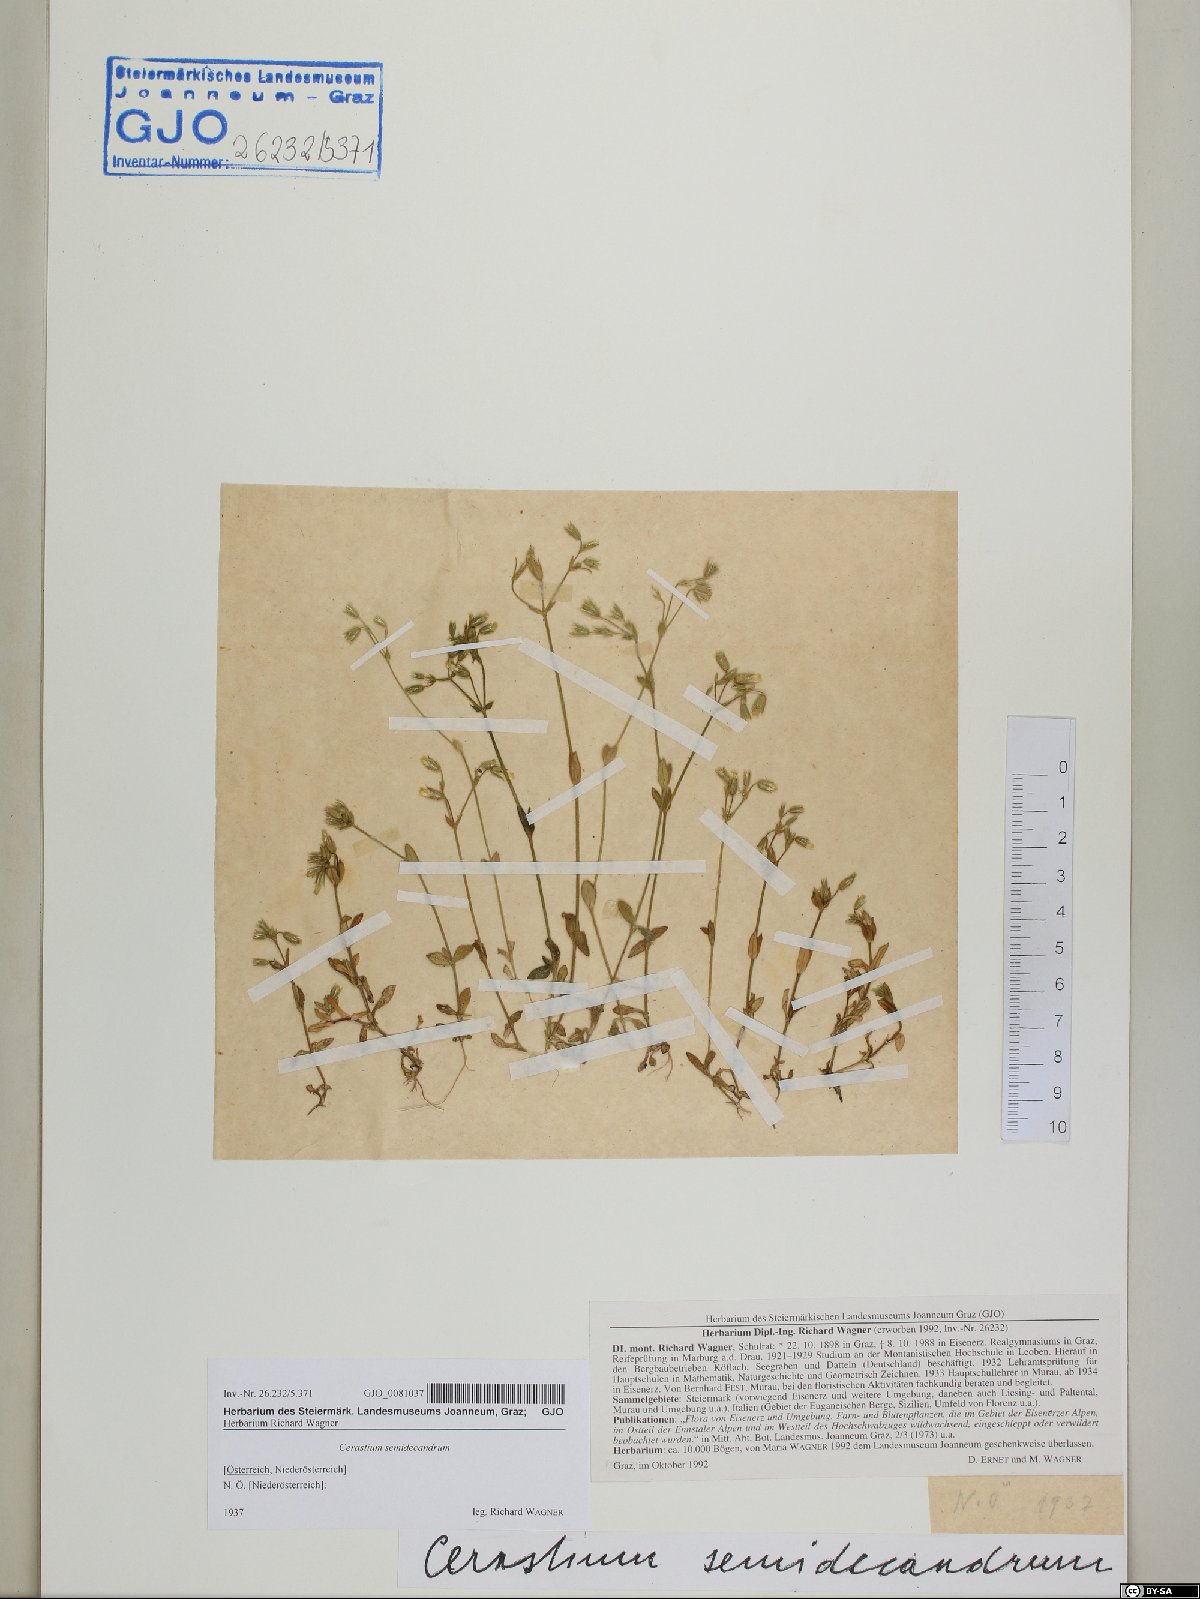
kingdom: Plantae
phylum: Tracheophyta
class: Magnoliopsida
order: Caryophyllales
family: Caryophyllaceae
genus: Cerastium
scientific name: Cerastium semidecandrum
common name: Little mouse-ear
